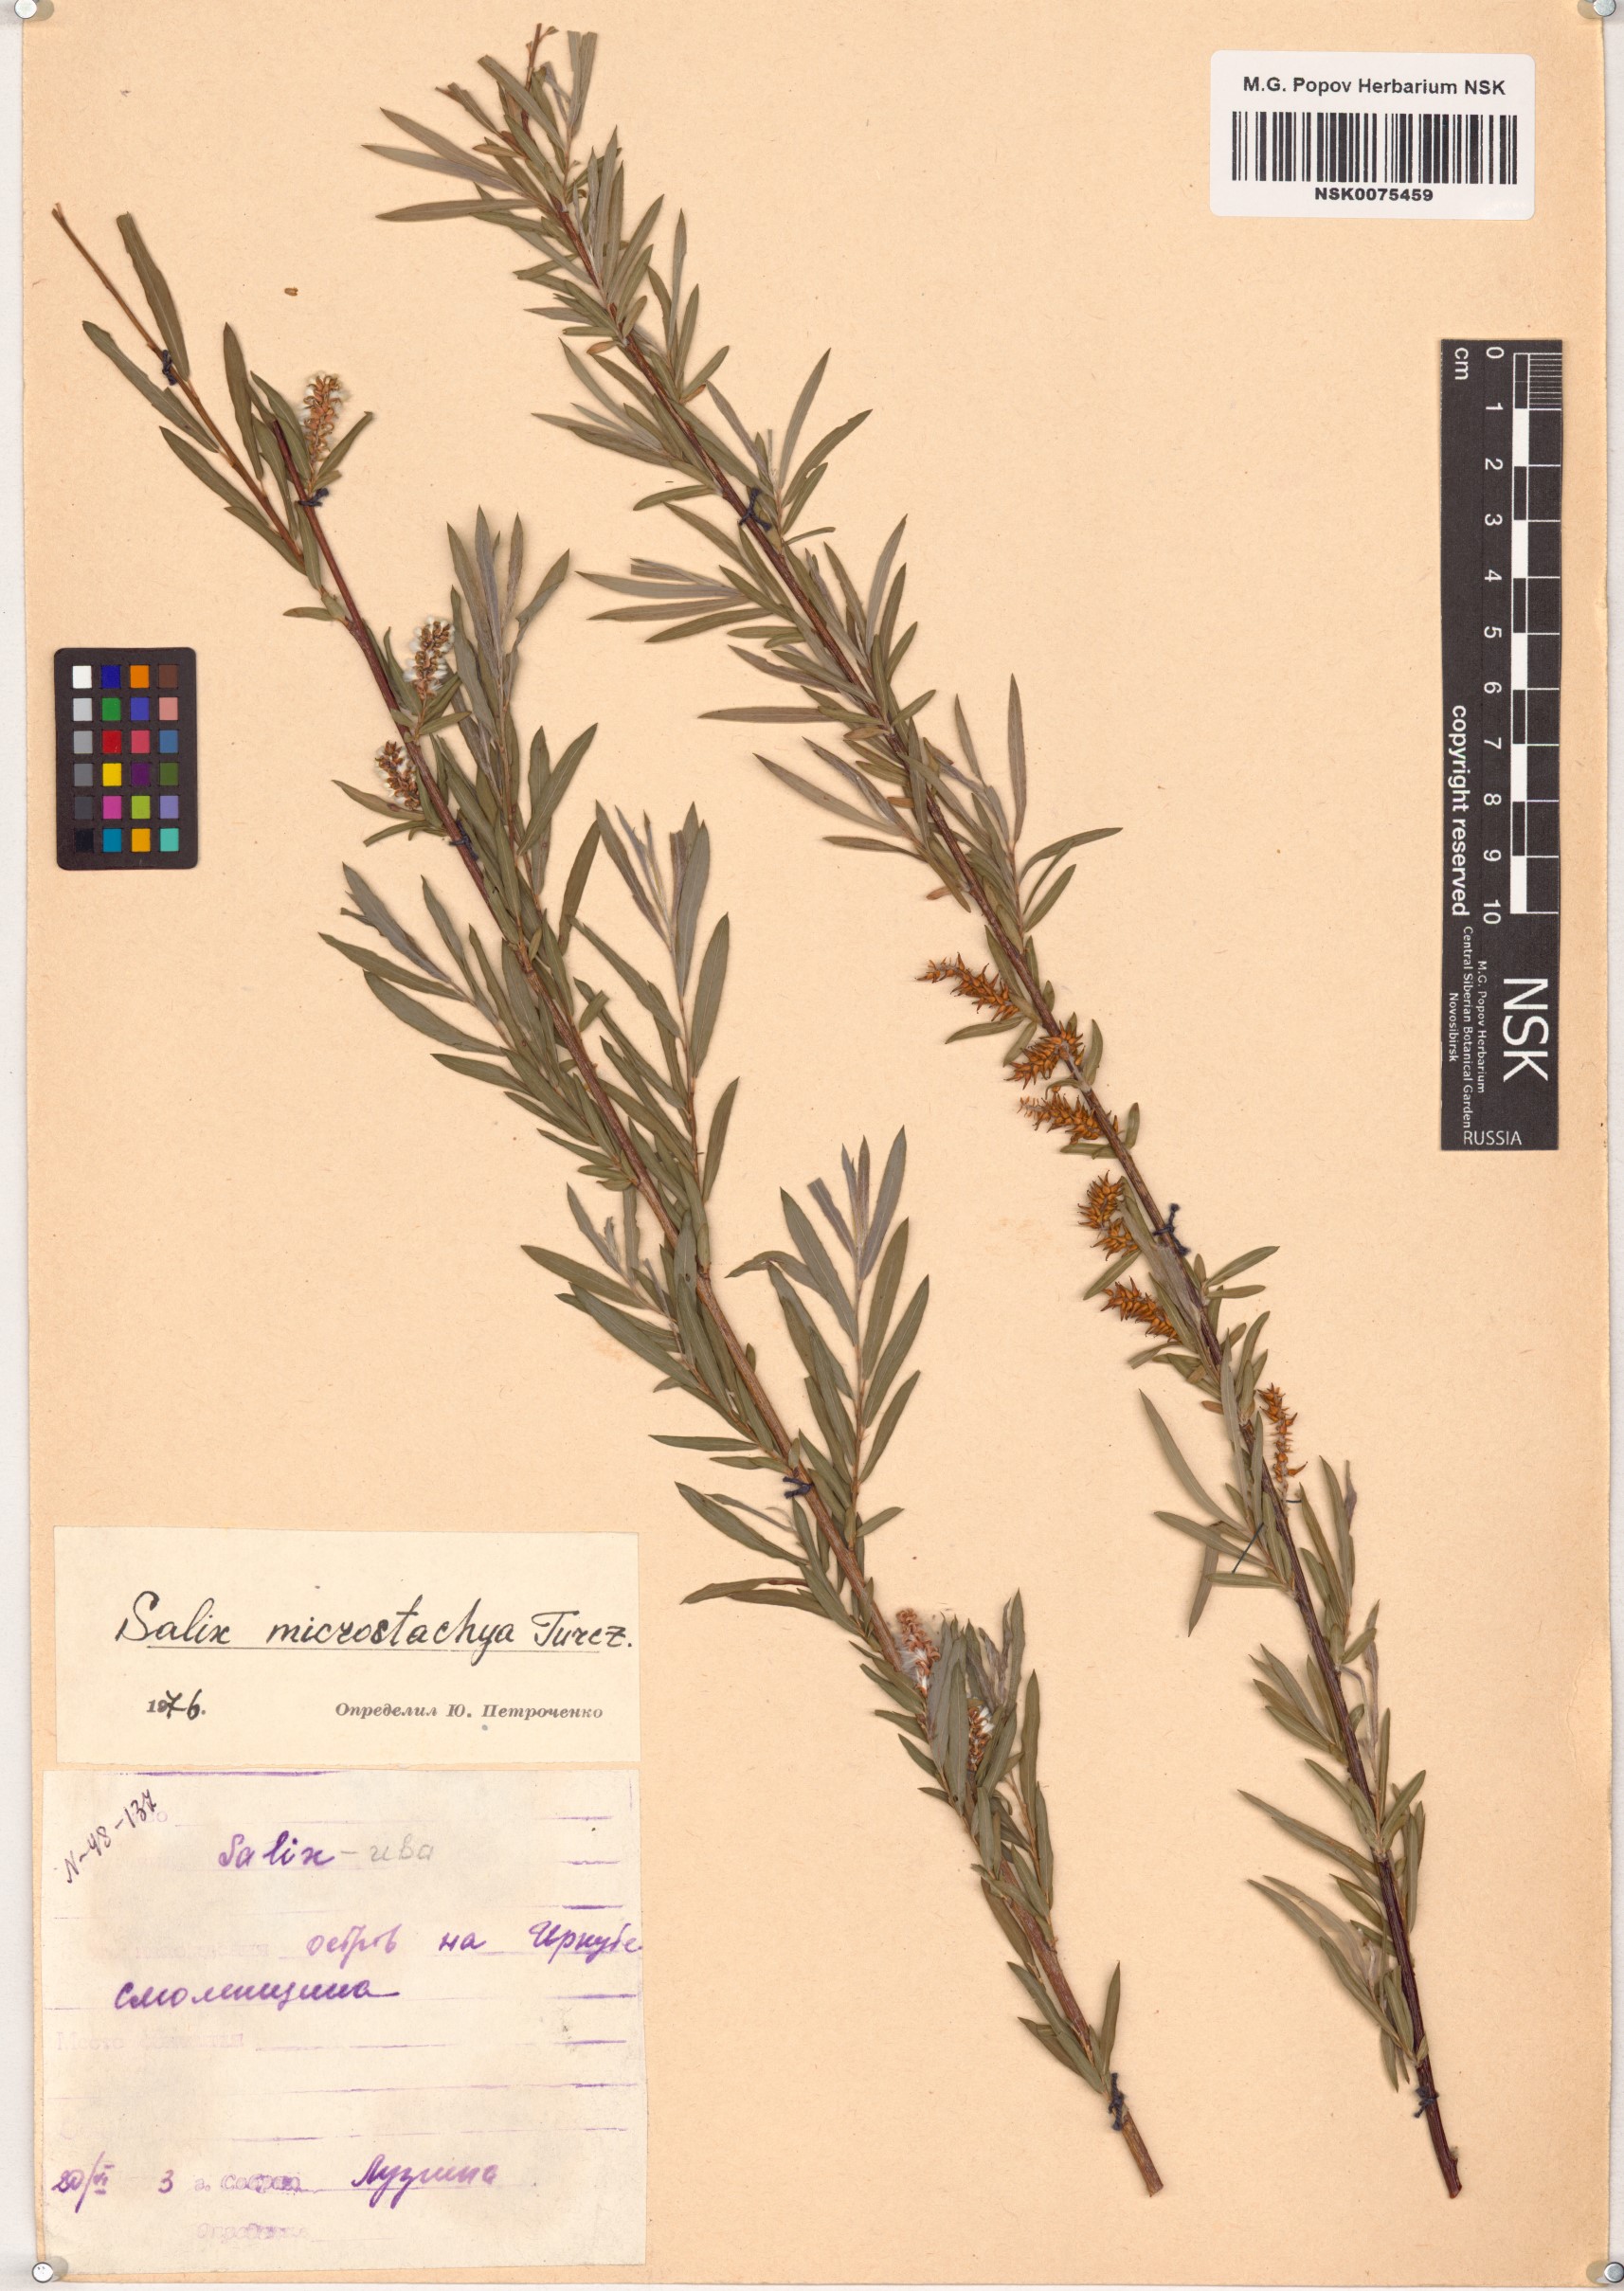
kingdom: Plantae
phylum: Tracheophyta
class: Magnoliopsida
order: Malpighiales
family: Salicaceae
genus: Salix
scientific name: Salix microstachya
